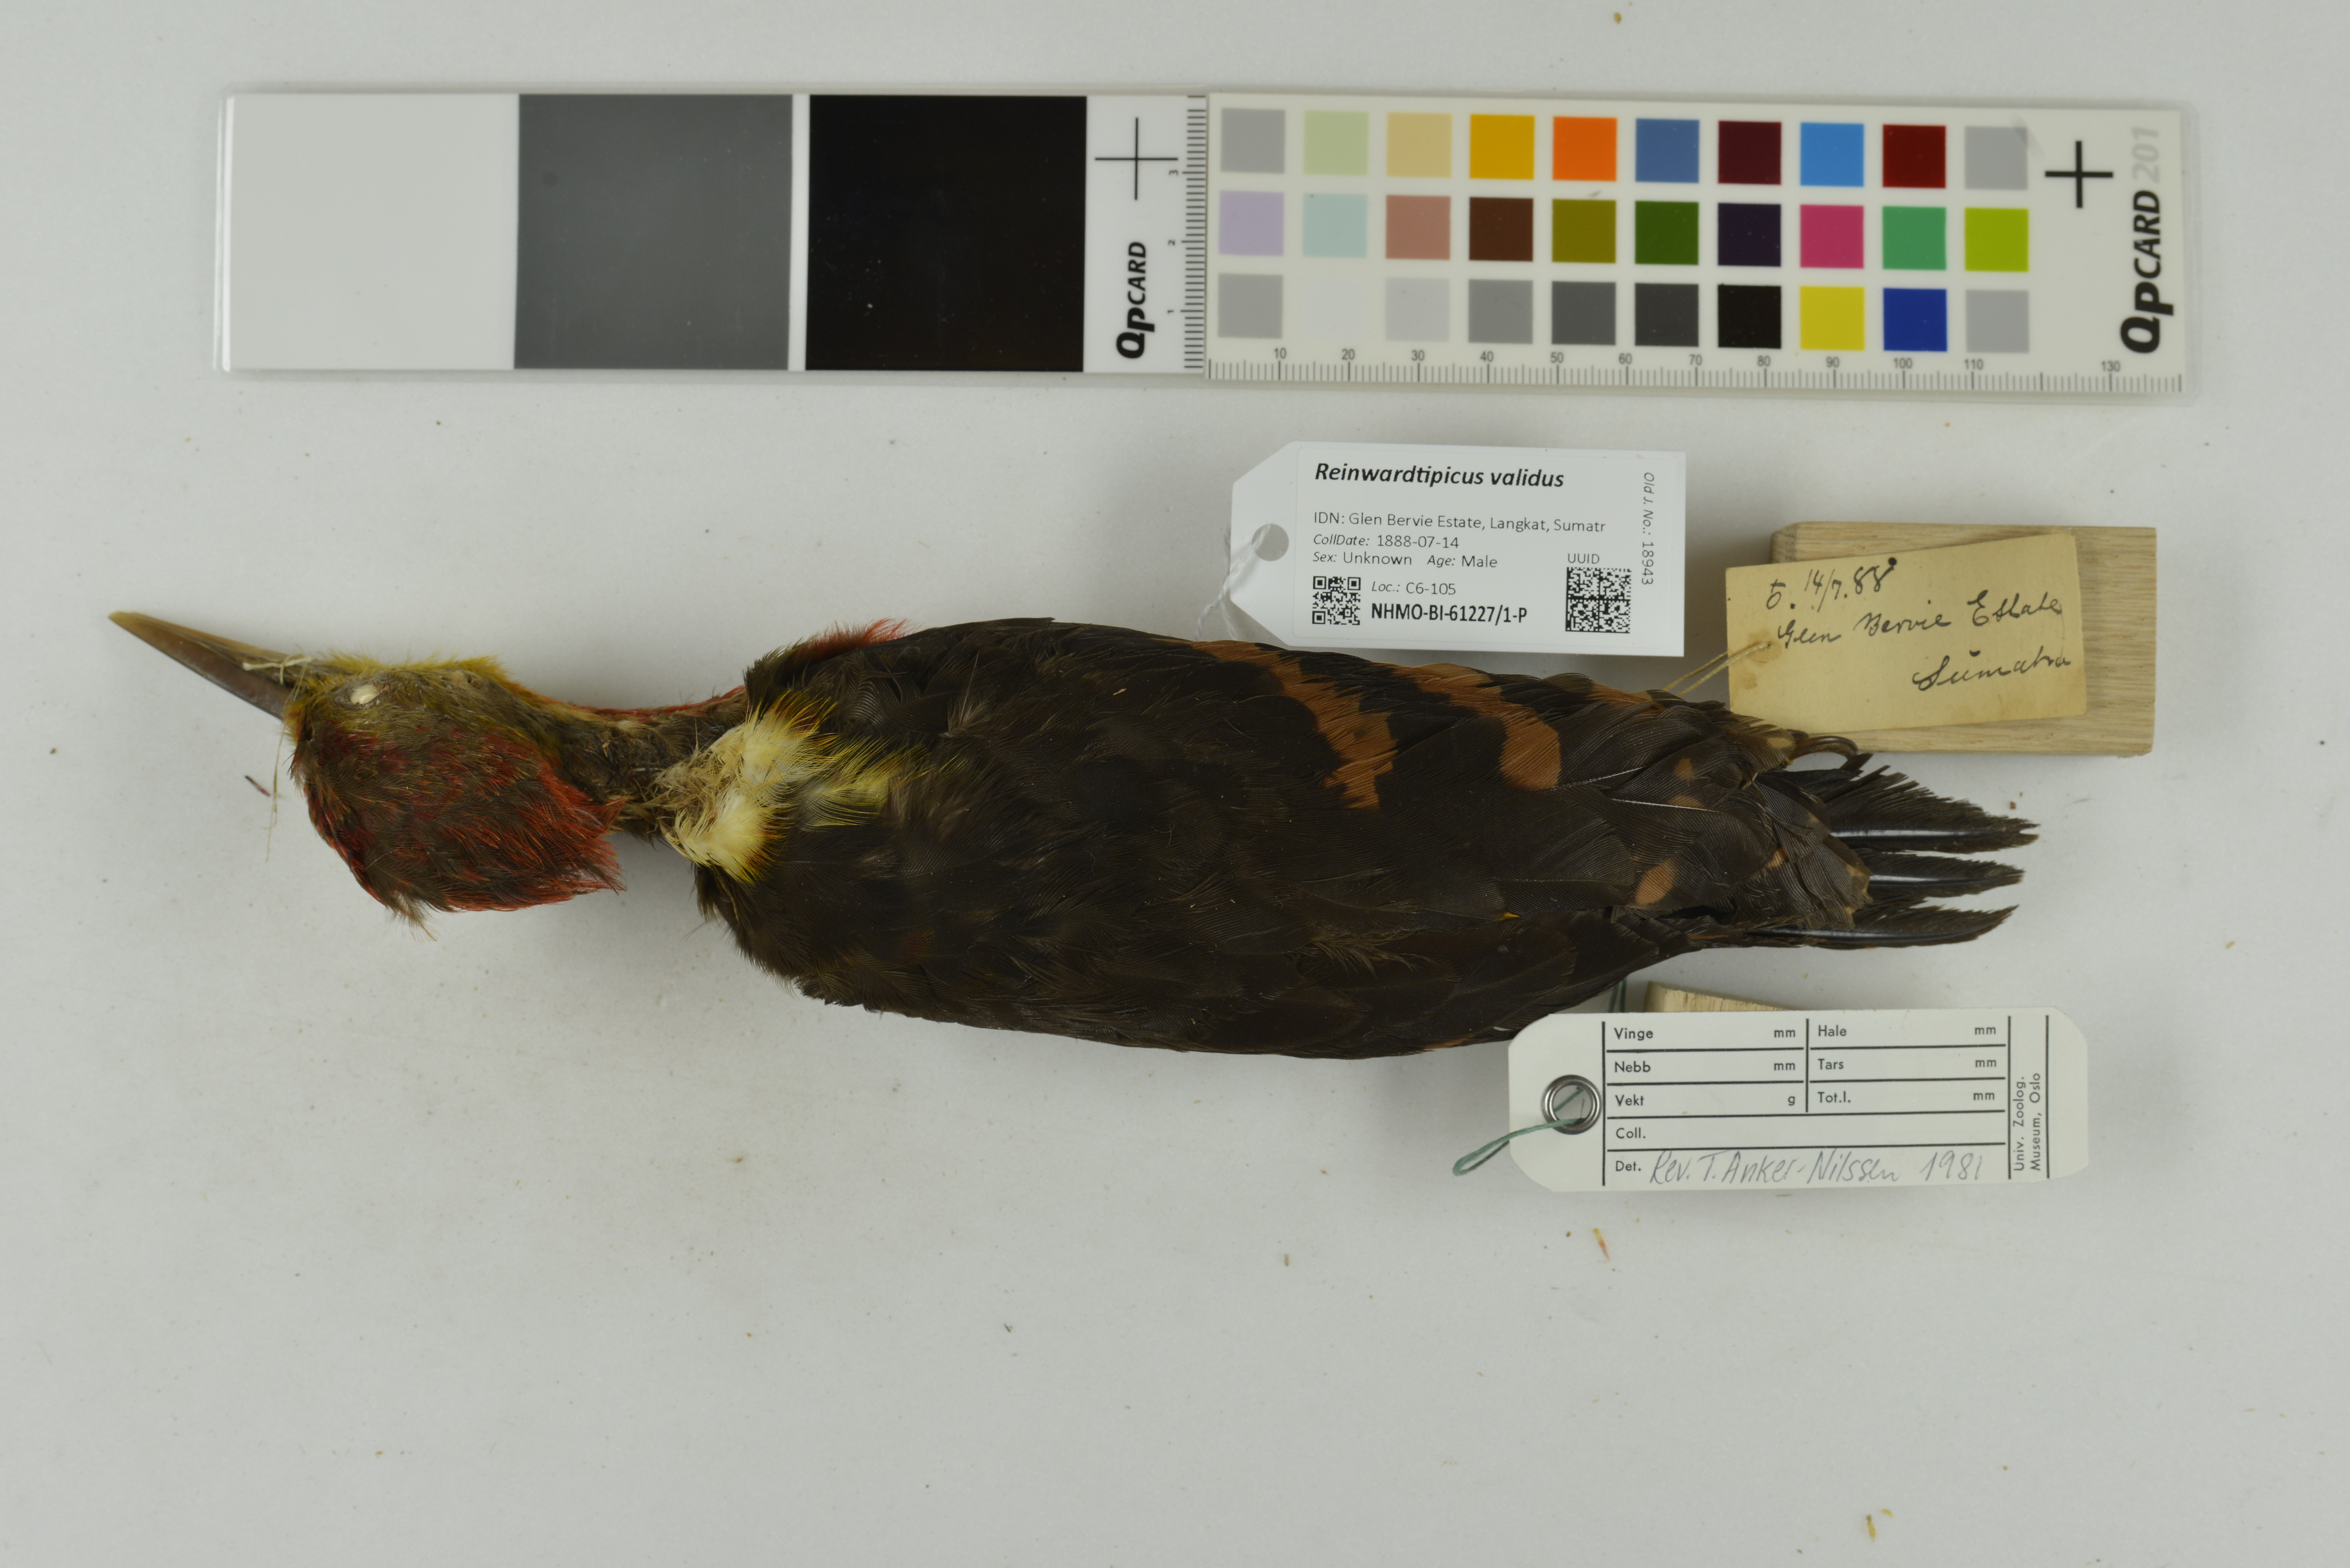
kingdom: Animalia
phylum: Chordata
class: Aves
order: Piciformes
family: Picidae
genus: Reinwardtipicus
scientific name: Reinwardtipicus validus
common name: Orange-backed woodpecker
